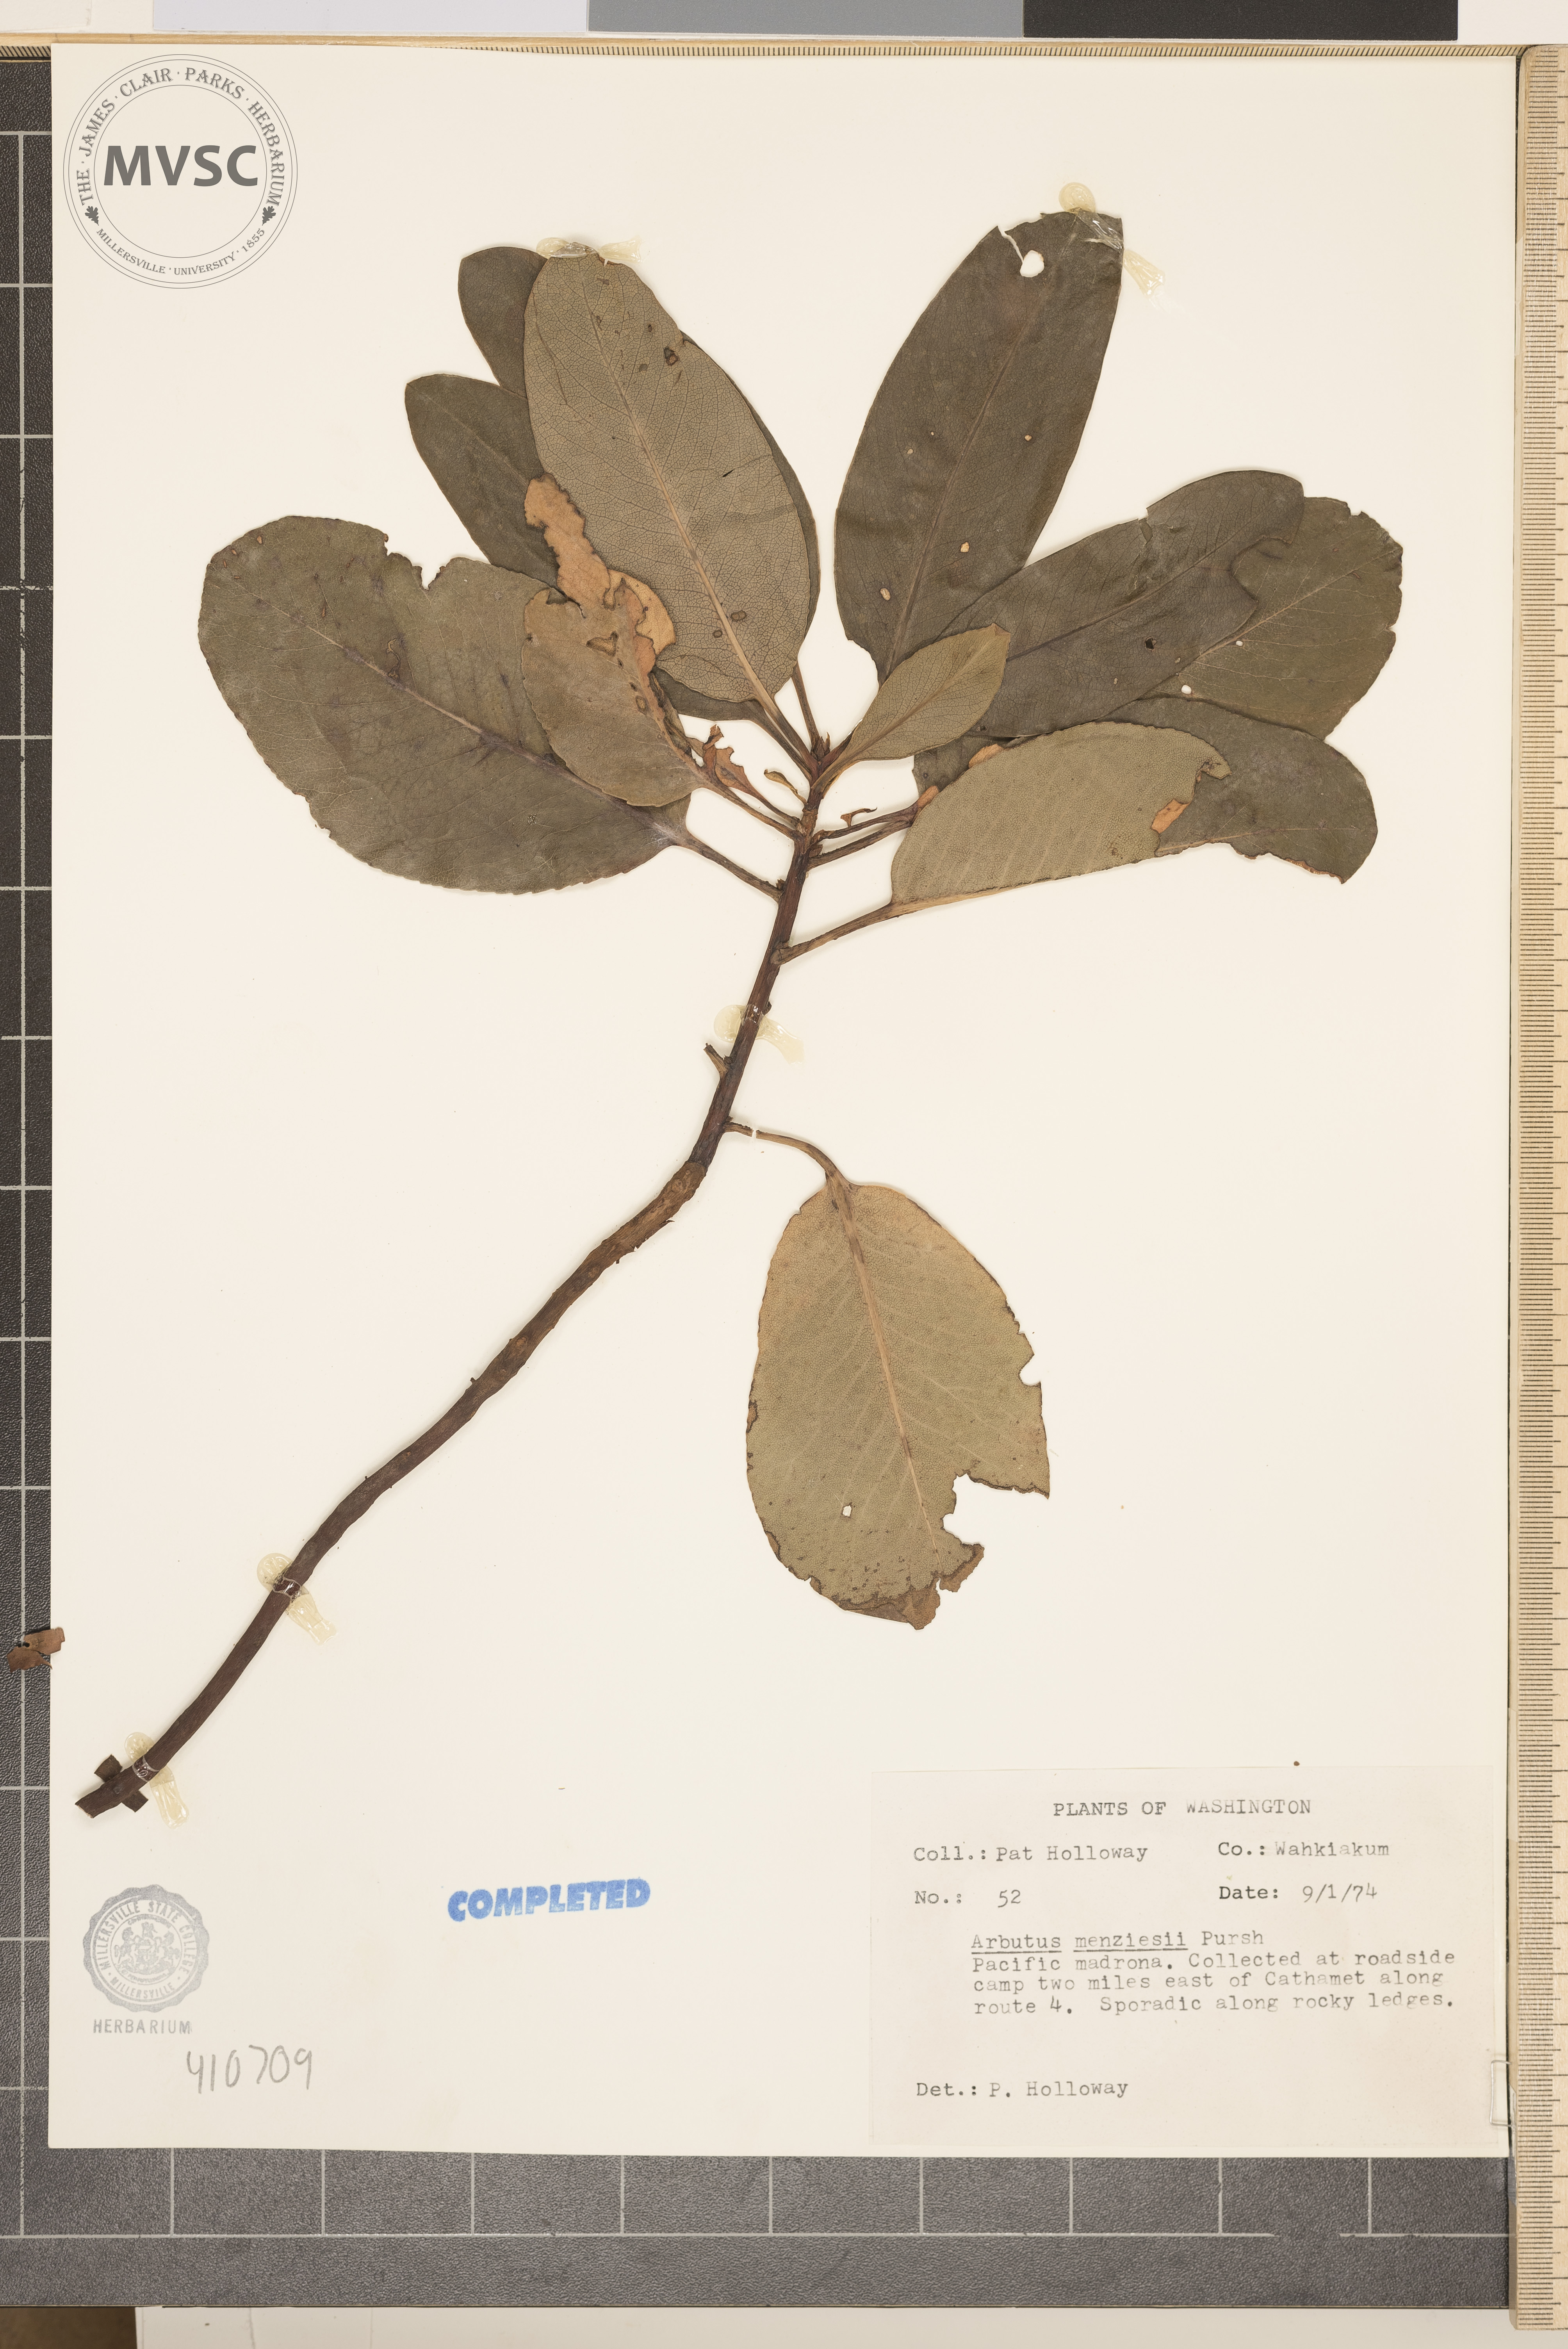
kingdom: Plantae
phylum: Tracheophyta
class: Magnoliopsida
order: Ericales
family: Ericaceae
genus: Arbutus
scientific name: Arbutus menziesii
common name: Pacific madrone
